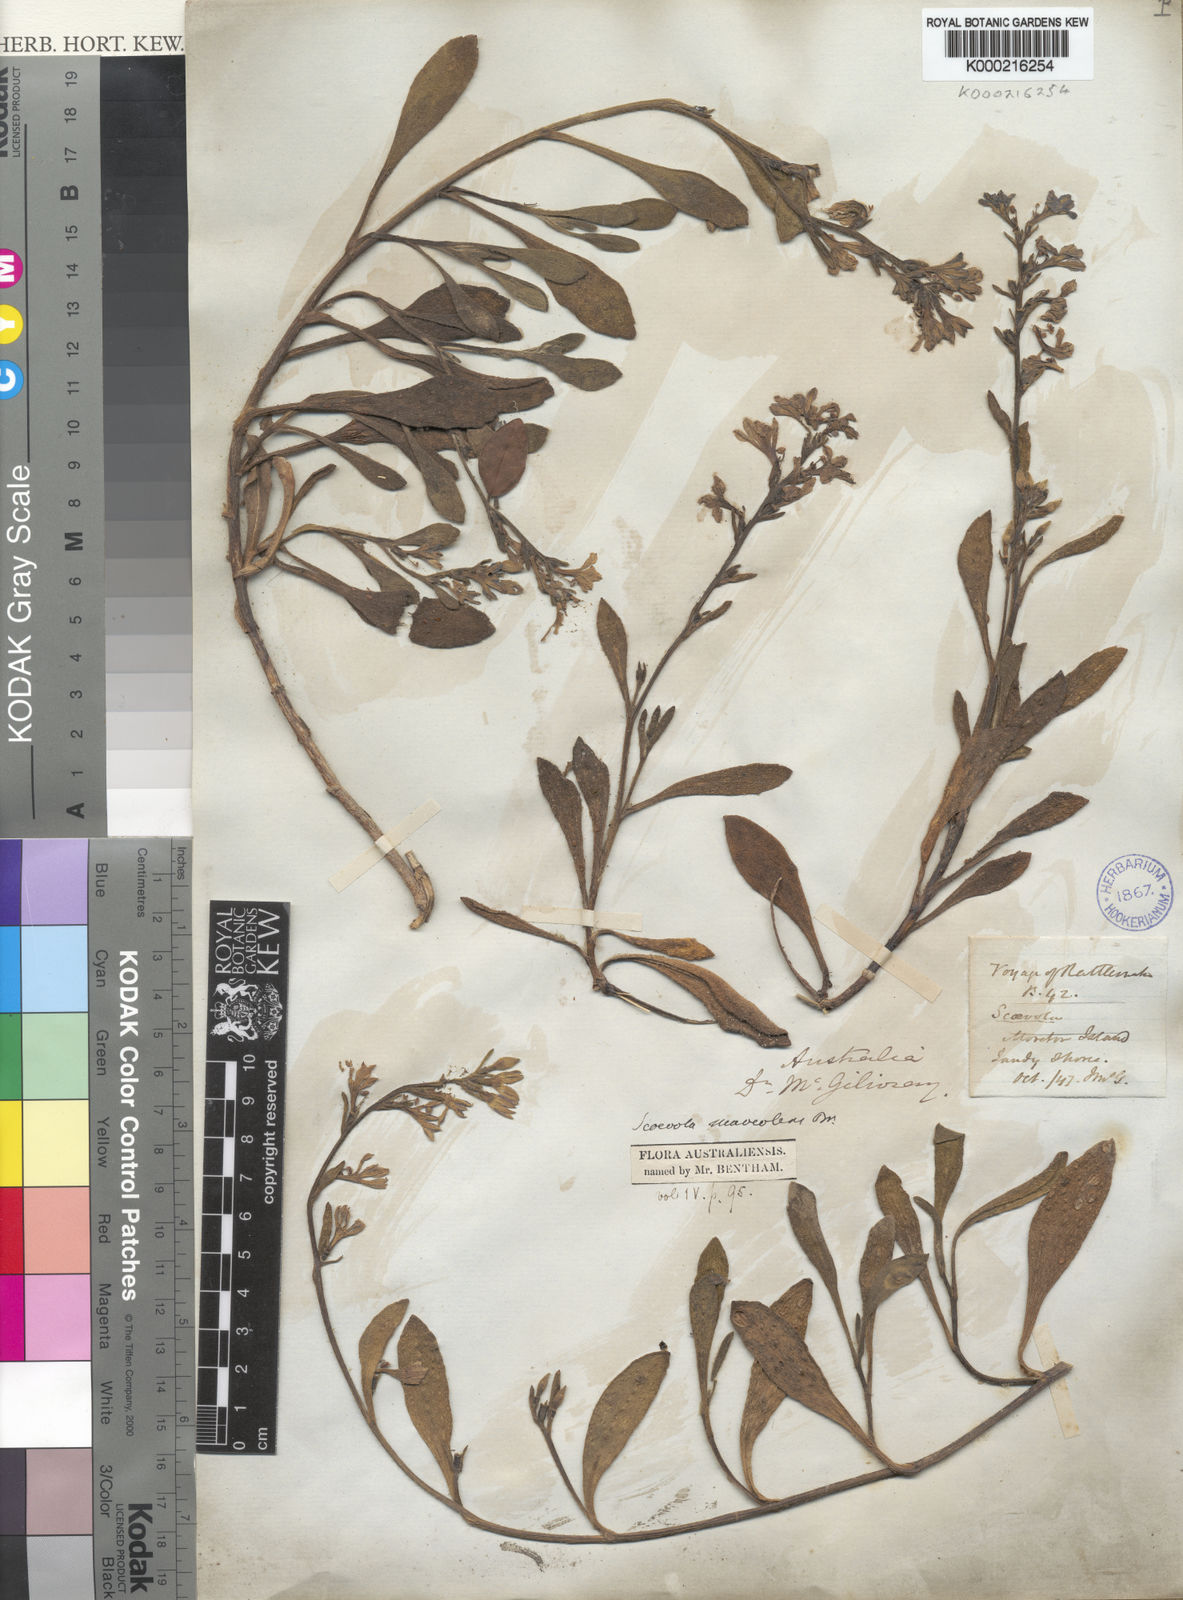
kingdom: Plantae
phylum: Tracheophyta
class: Magnoliopsida
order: Asterales
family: Goodeniaceae
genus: Scaevola
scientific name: Scaevola calendulacea
